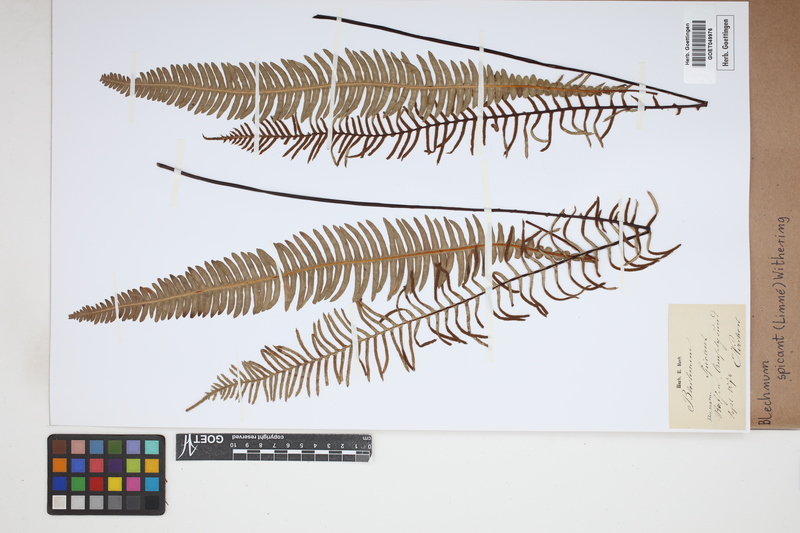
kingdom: Plantae
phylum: Tracheophyta
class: Polypodiopsida
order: Polypodiales
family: Blechnaceae
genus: Struthiopteris
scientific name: Struthiopteris spicant
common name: Deer fern
